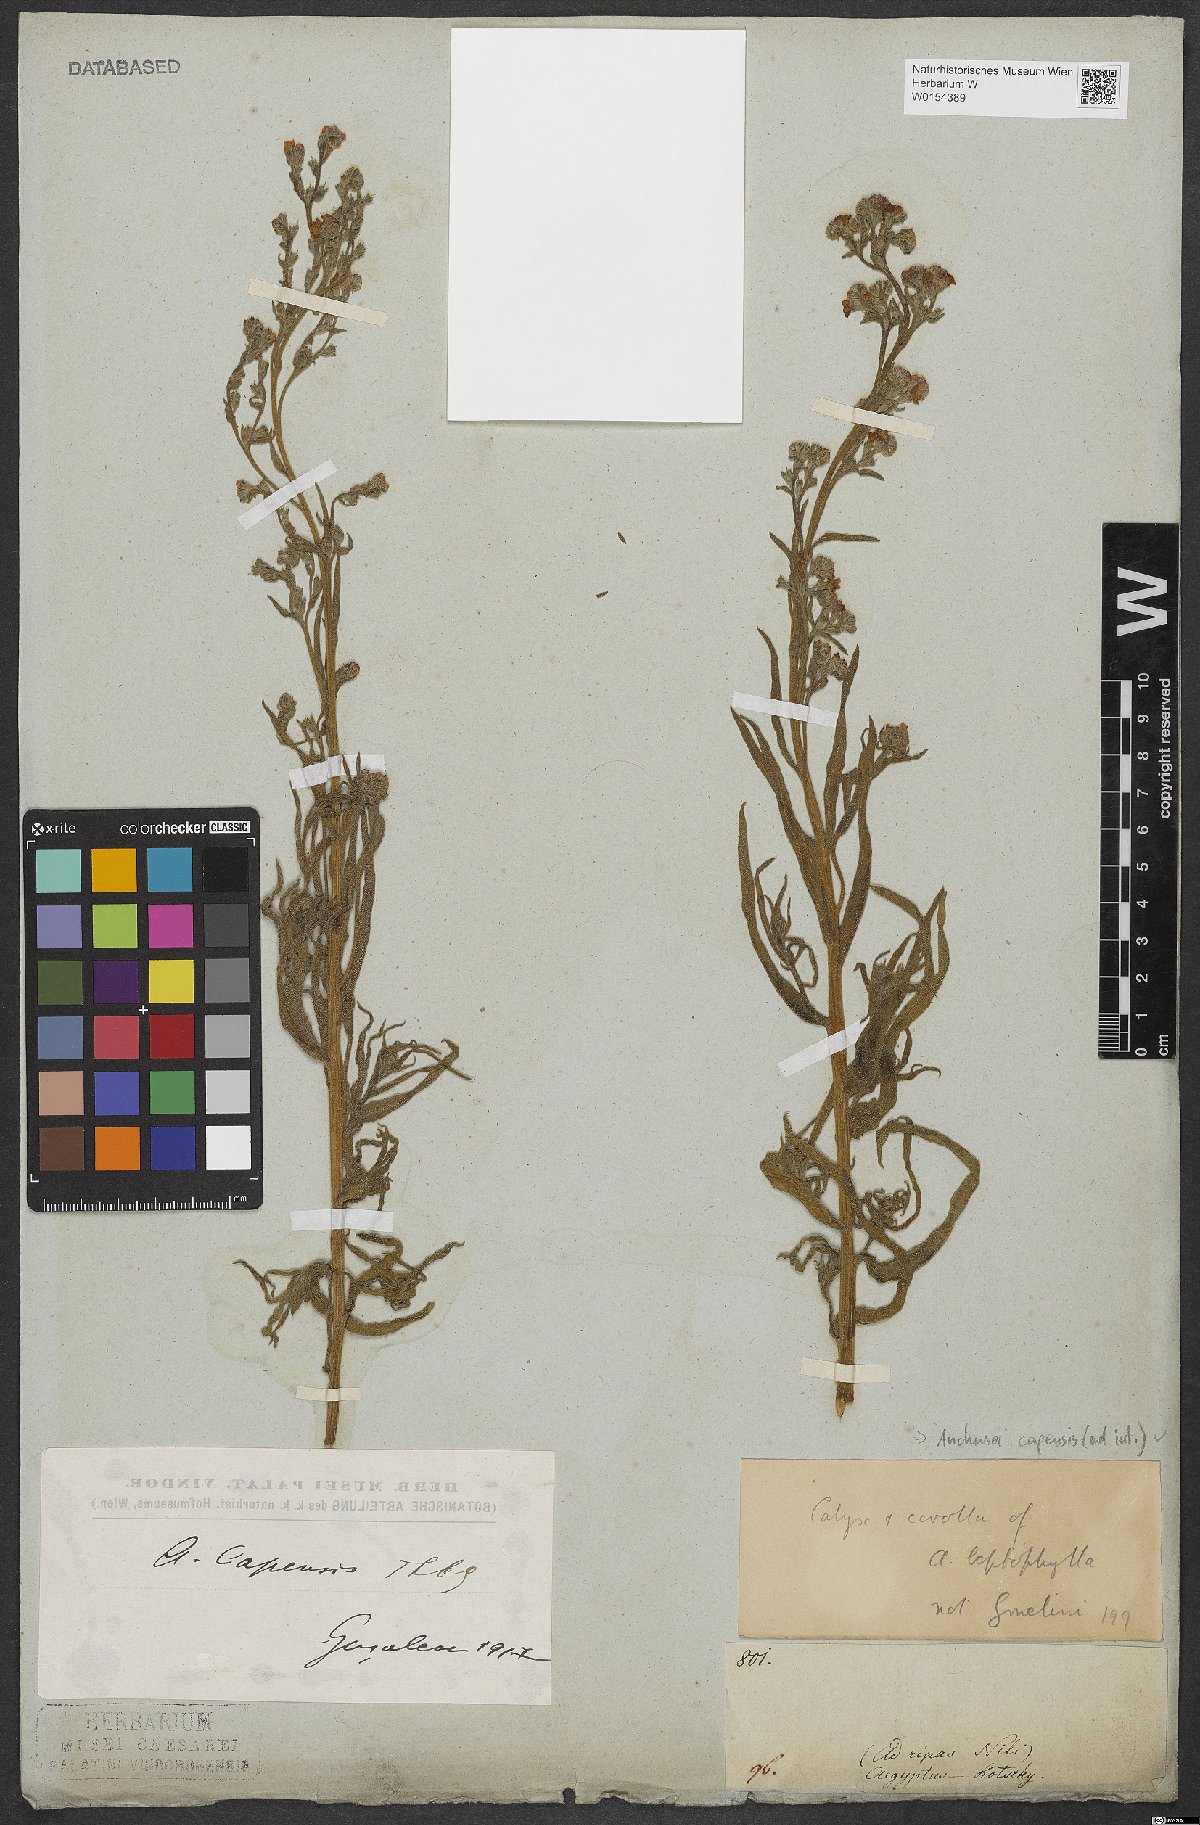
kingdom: Plantae
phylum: Tracheophyta
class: Magnoliopsida
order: Boraginales
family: Boraginaceae
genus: Anchusa
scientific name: Anchusa capensis
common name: Cape bugloss
